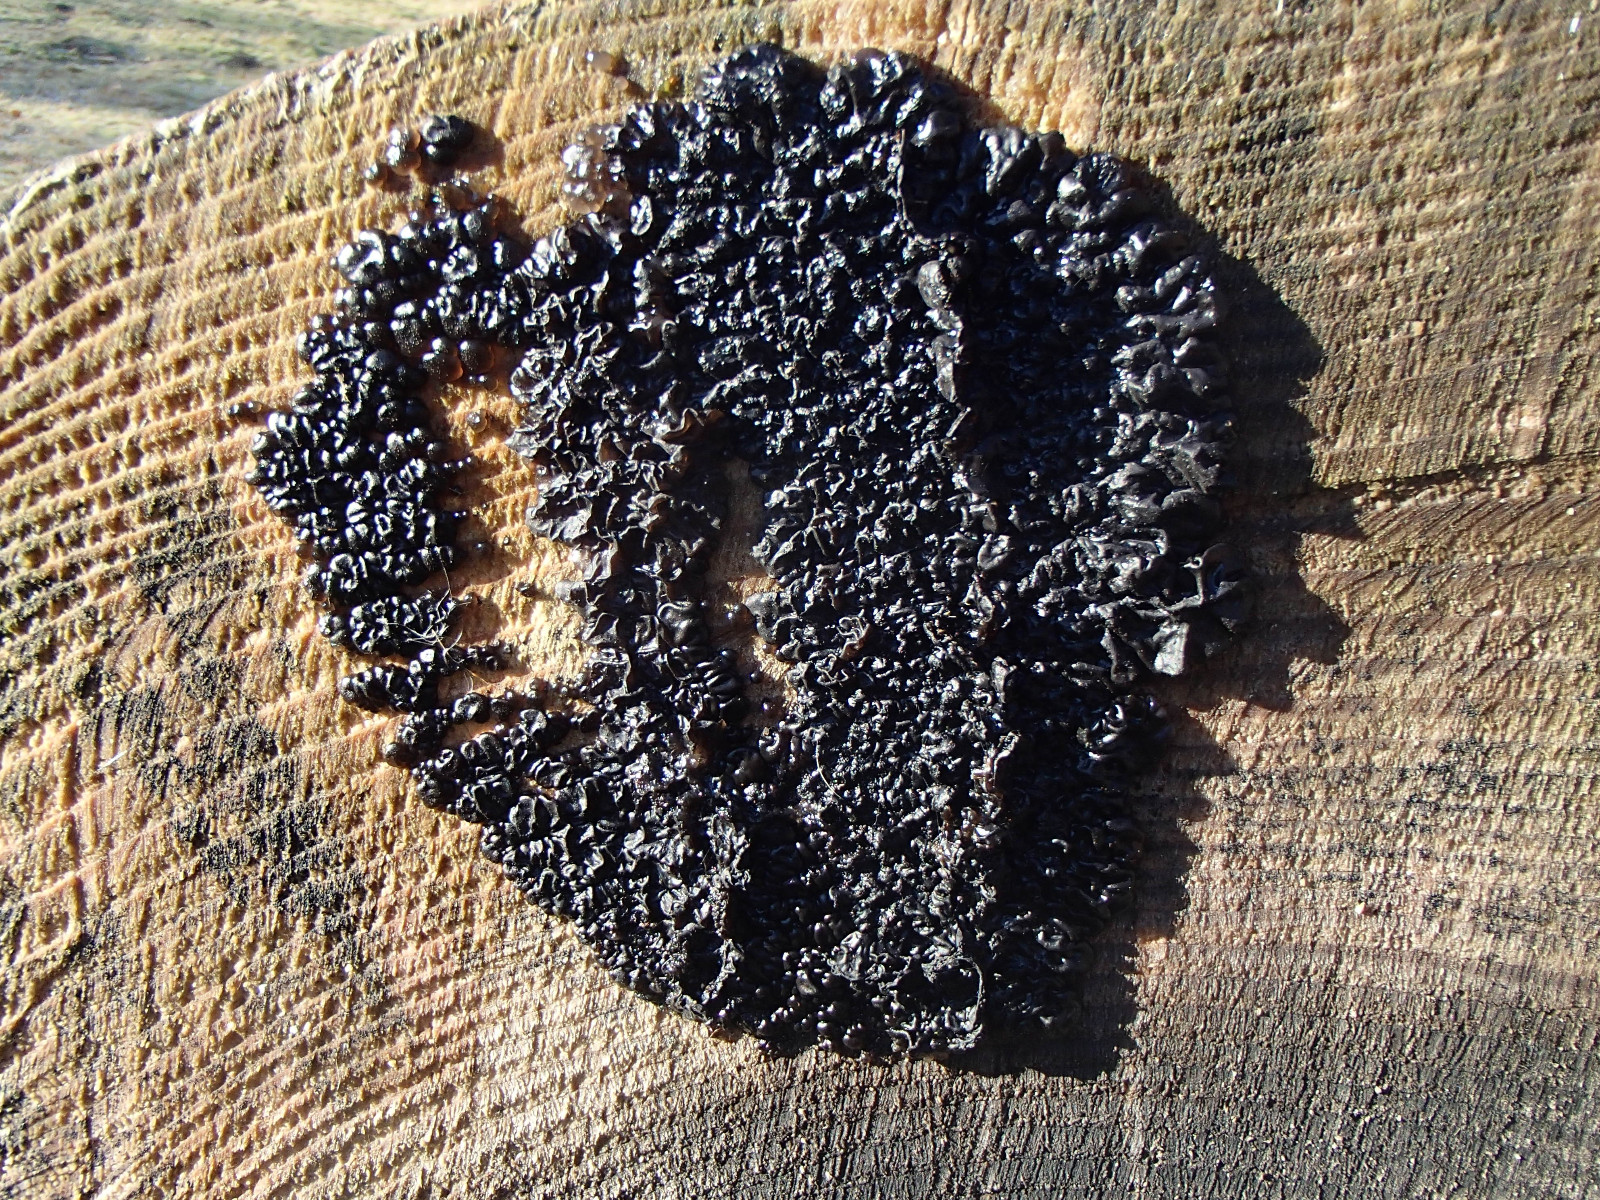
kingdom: Fungi
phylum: Basidiomycota
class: Agaricomycetes
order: Auriculariales
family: Auriculariaceae
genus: Exidia
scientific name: Exidia nigricans
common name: almindelig bævretop
